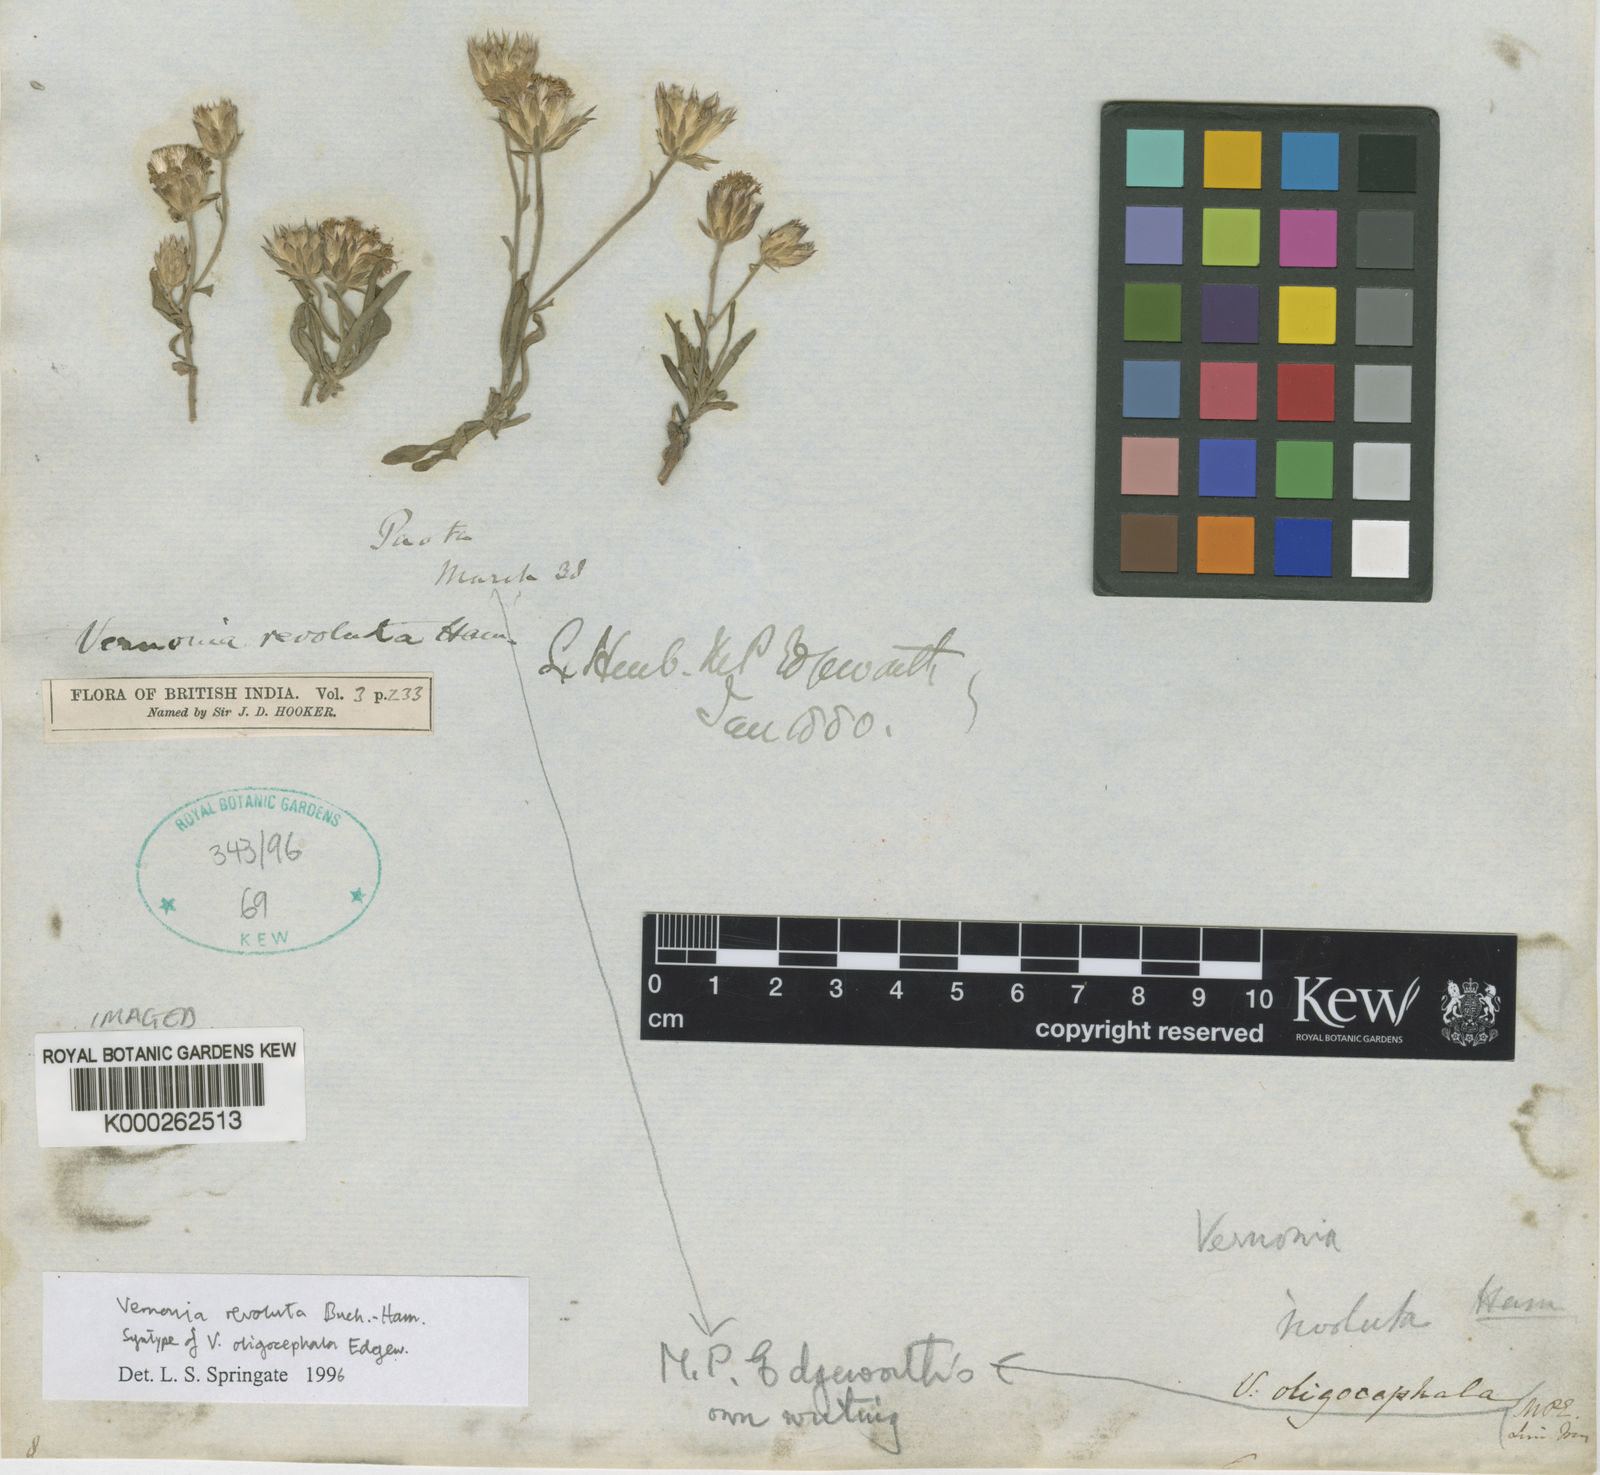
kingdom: Plantae
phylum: Tracheophyta
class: Magnoliopsida
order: Asterales
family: Asteraceae
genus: Vernonia
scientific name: Vernonia revoluta
